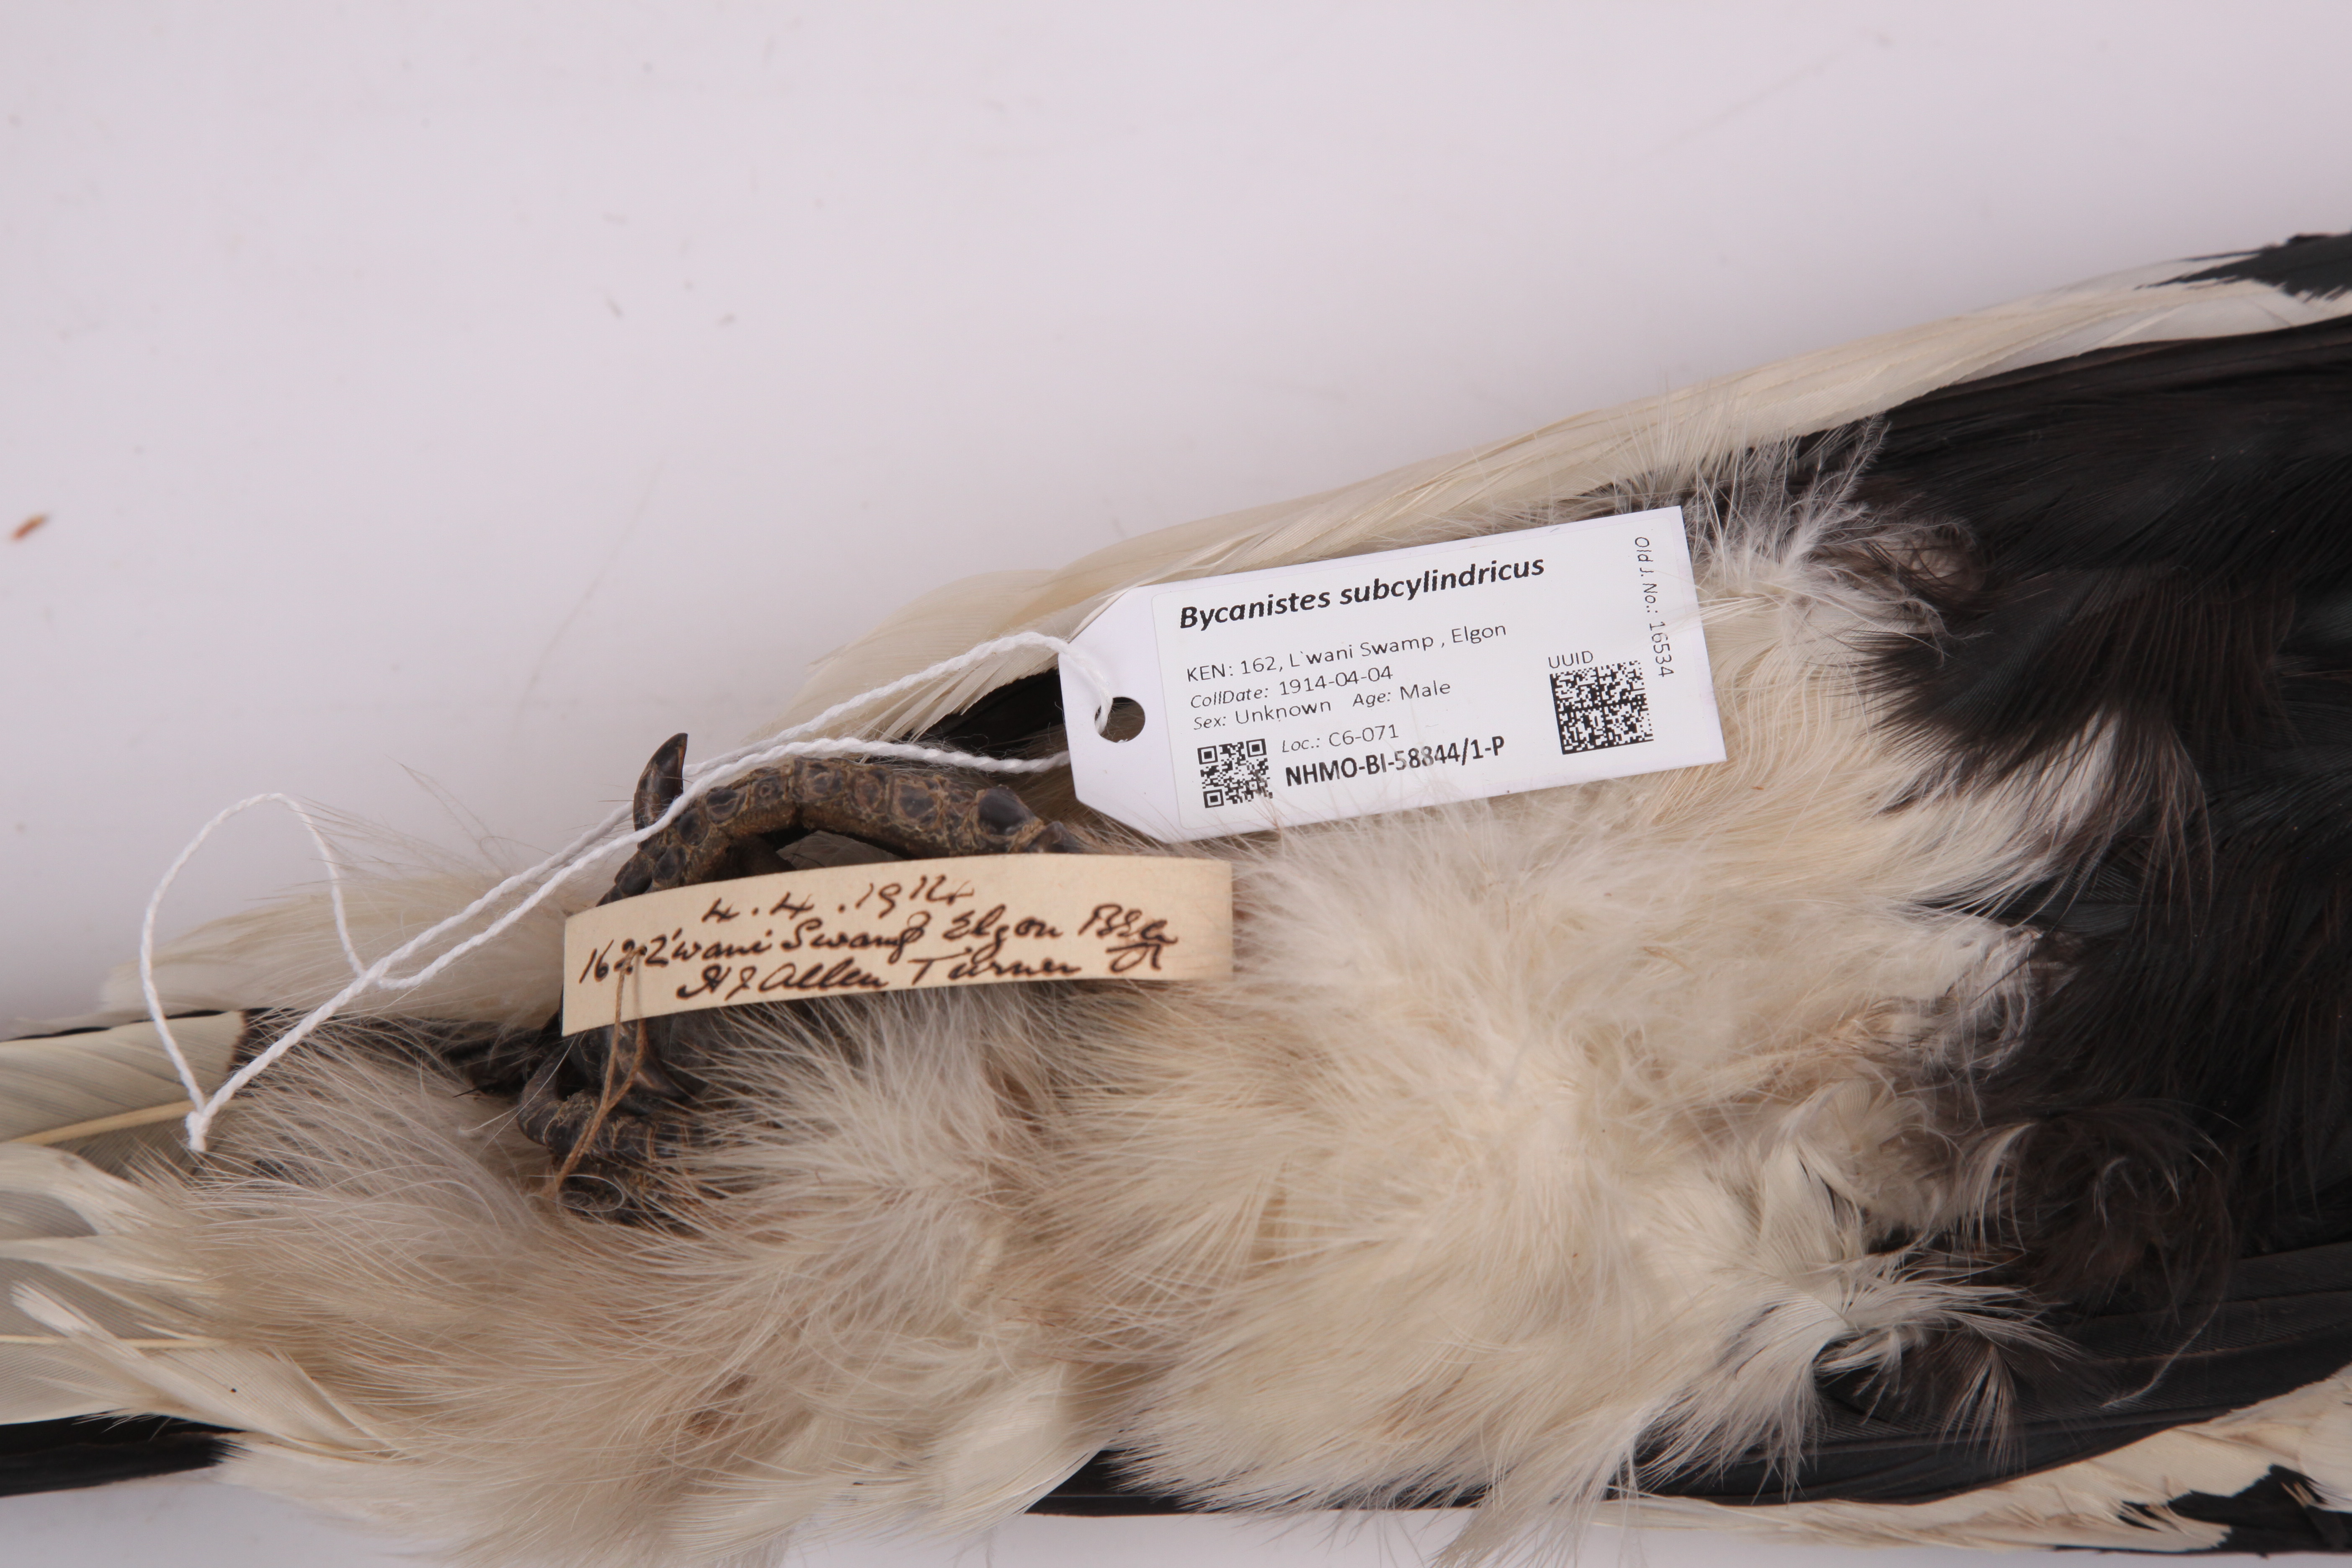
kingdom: Animalia
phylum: Chordata
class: Aves
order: Bucerotiformes
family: Bucerotidae
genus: Bycanistes
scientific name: Bycanistes subcylindricus
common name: Black-and-white-casqued hornbill
